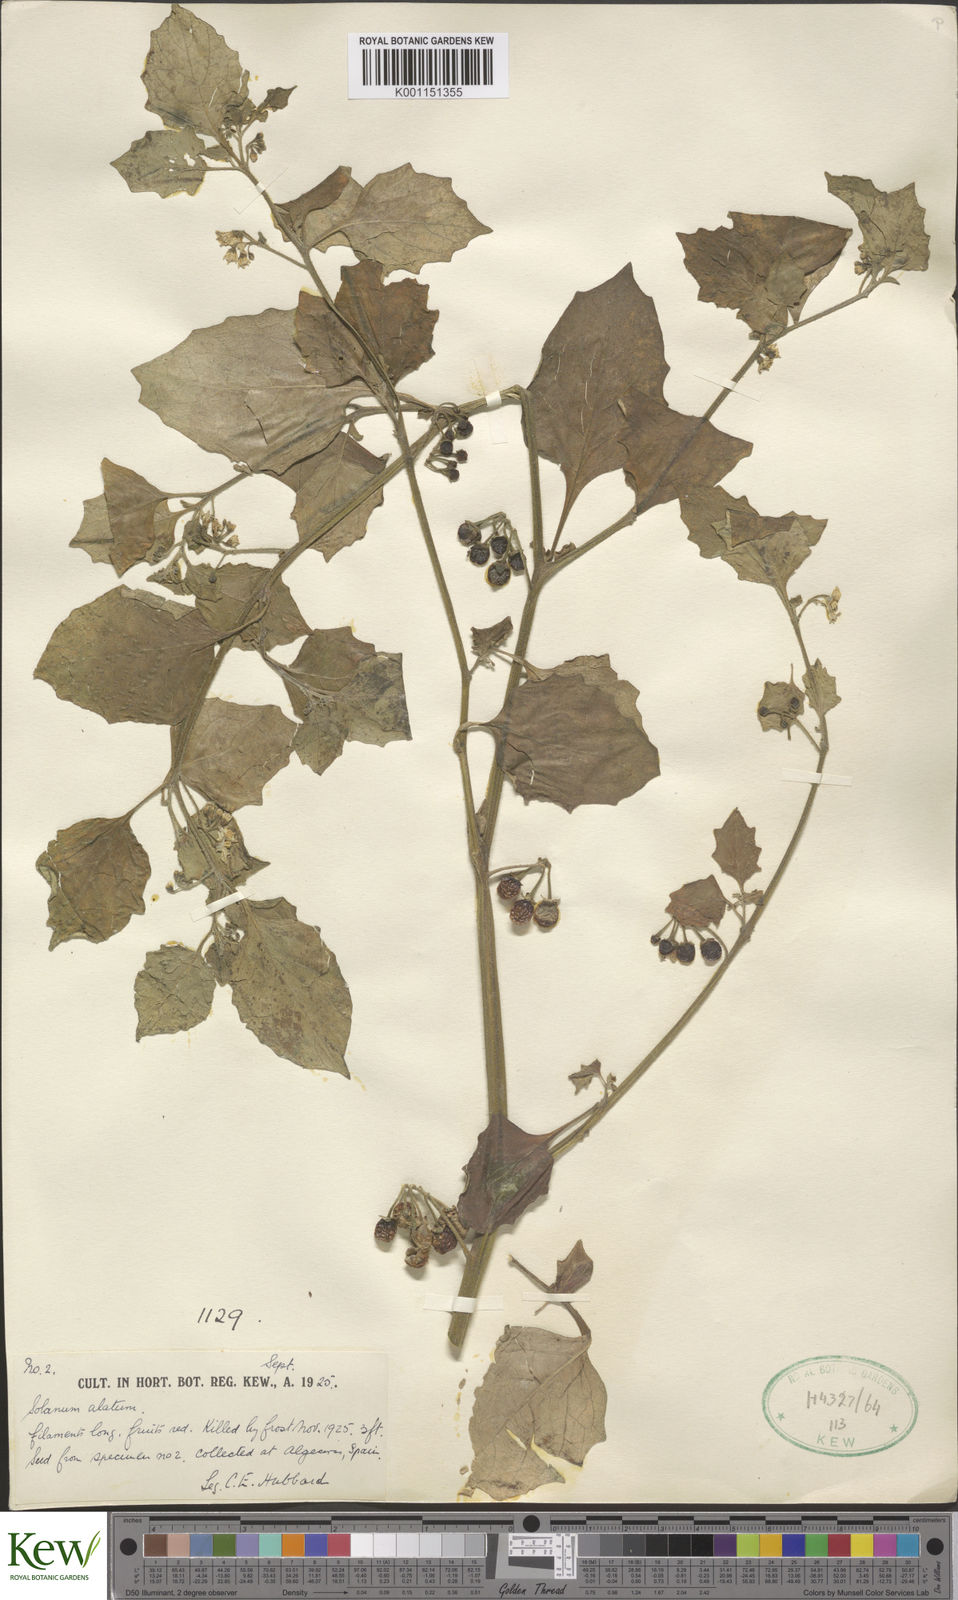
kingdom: Plantae
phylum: Tracheophyta
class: Magnoliopsida
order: Solanales
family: Solanaceae
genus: Solanum
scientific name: Solanum alatum
